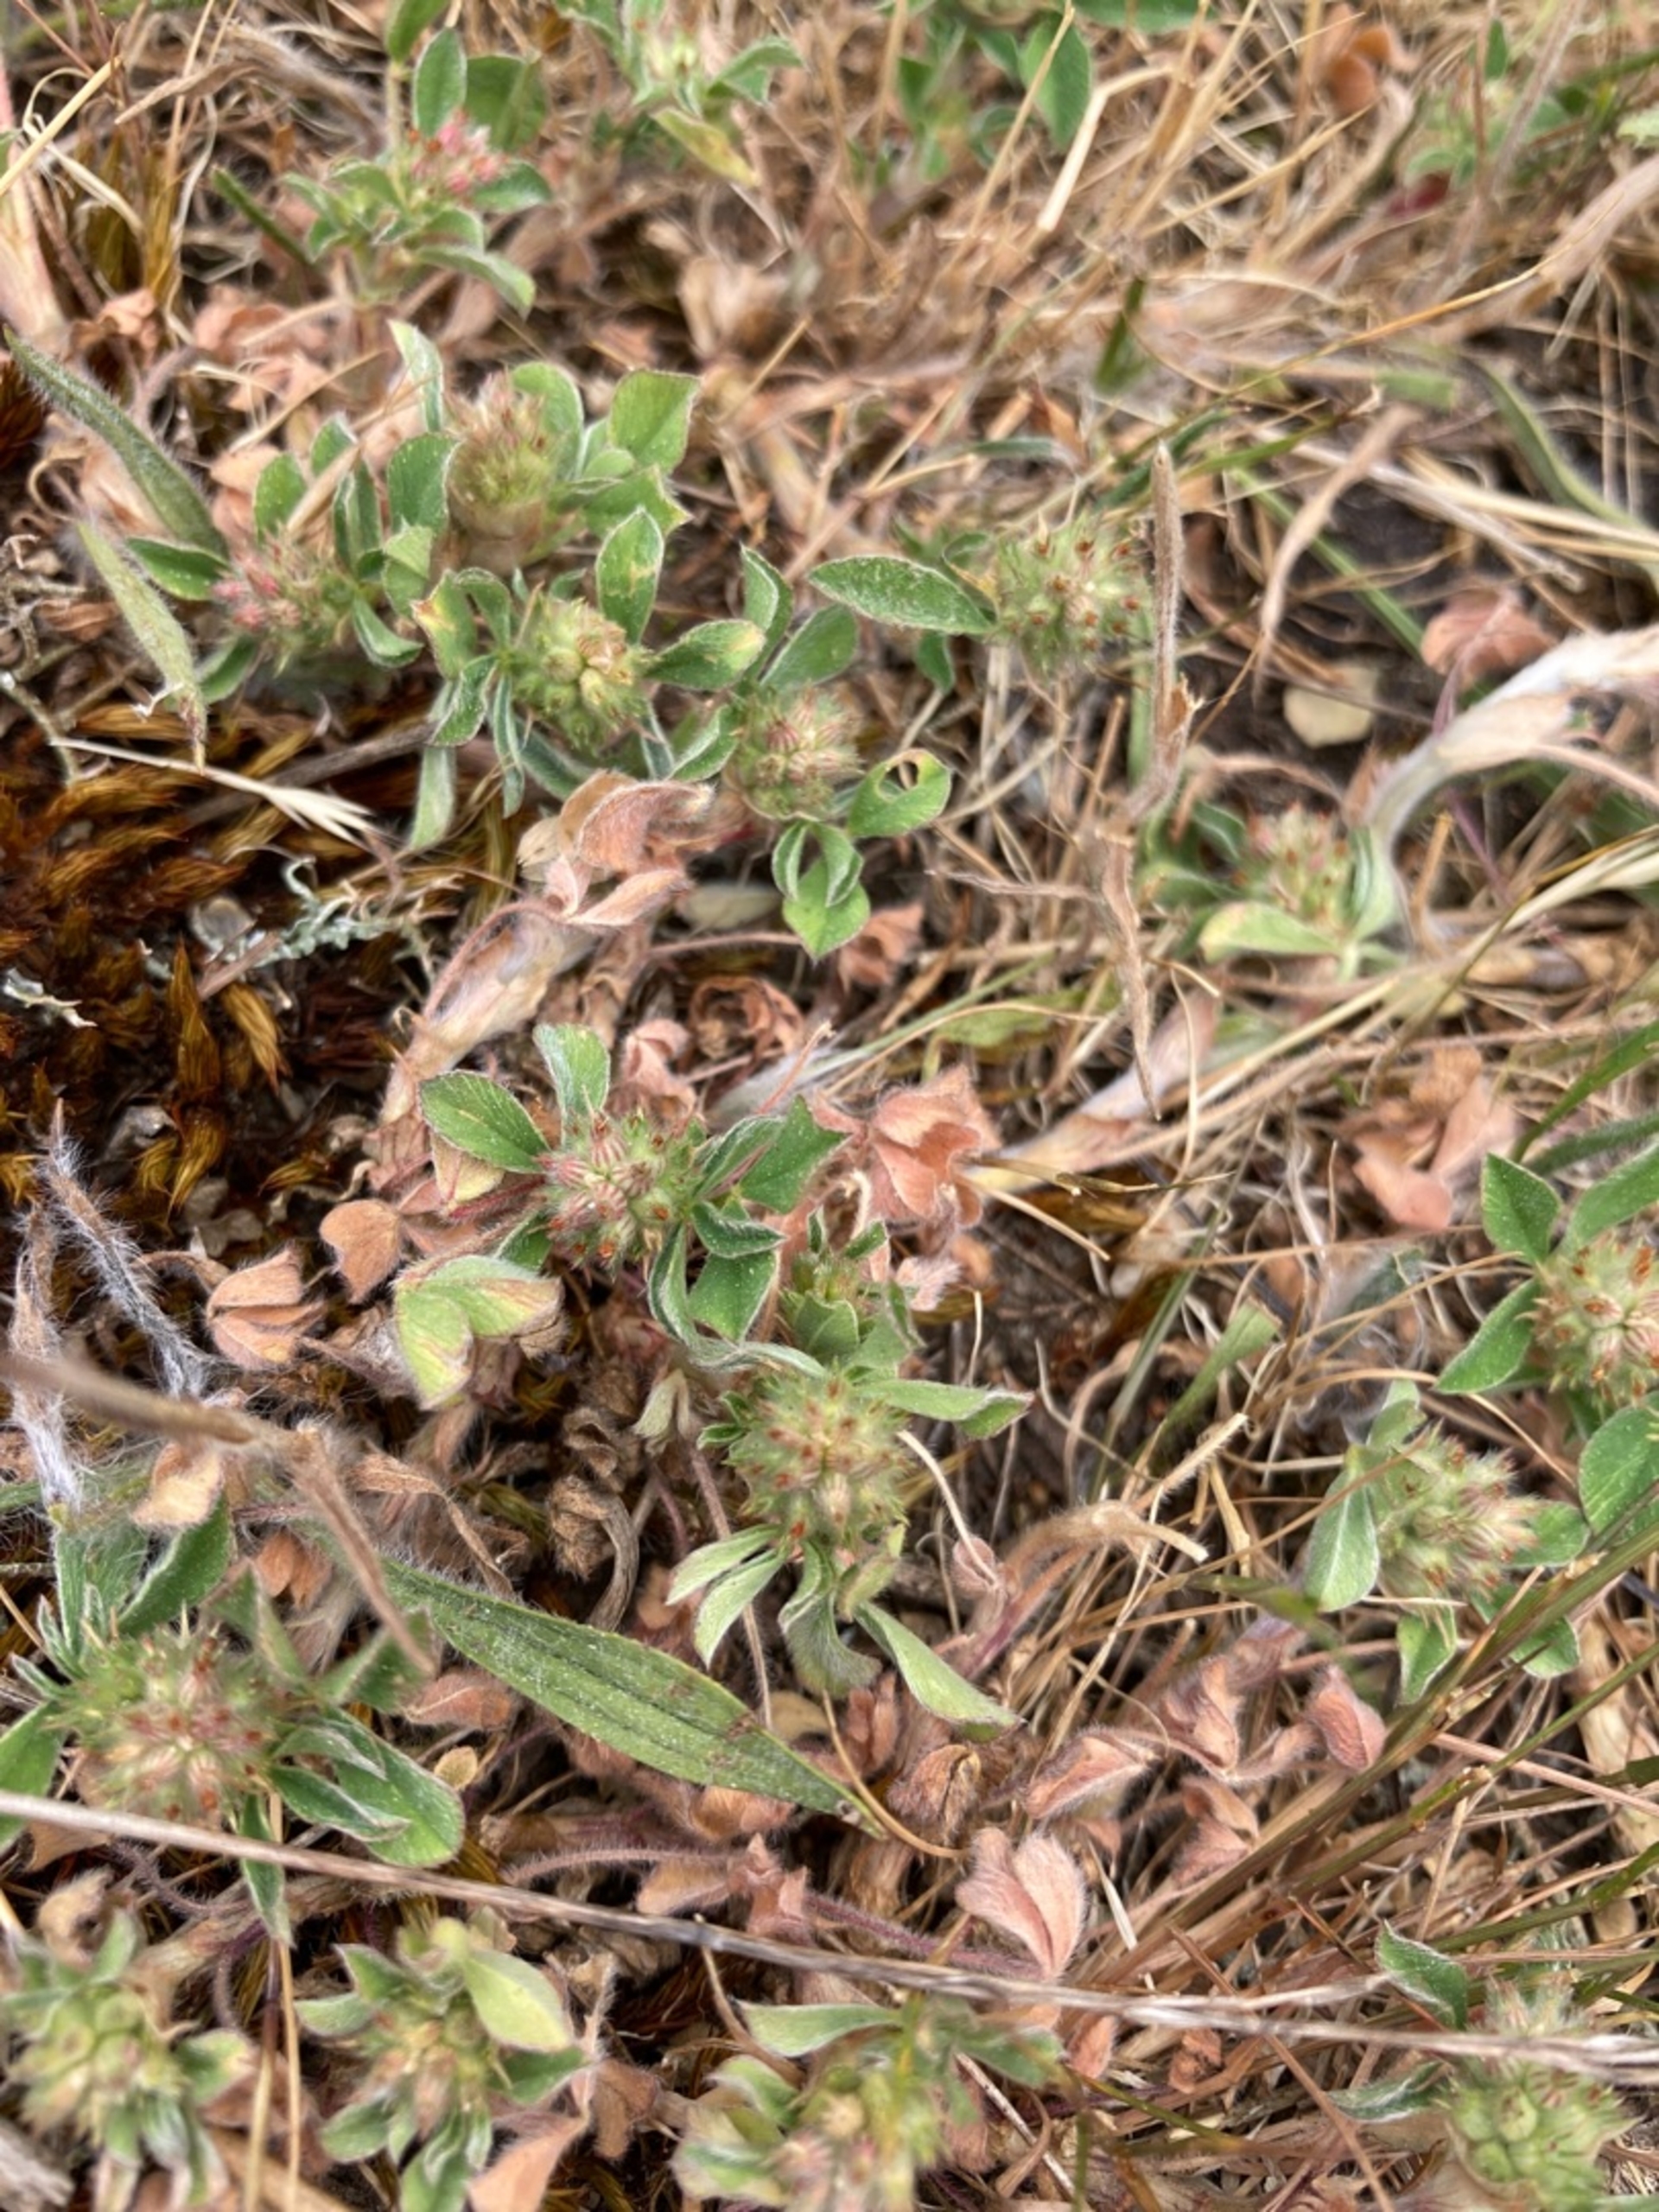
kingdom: Plantae
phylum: Tracheophyta
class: Magnoliopsida
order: Fabales
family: Fabaceae
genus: Trifolium
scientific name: Trifolium striatum
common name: Stribet kløver
